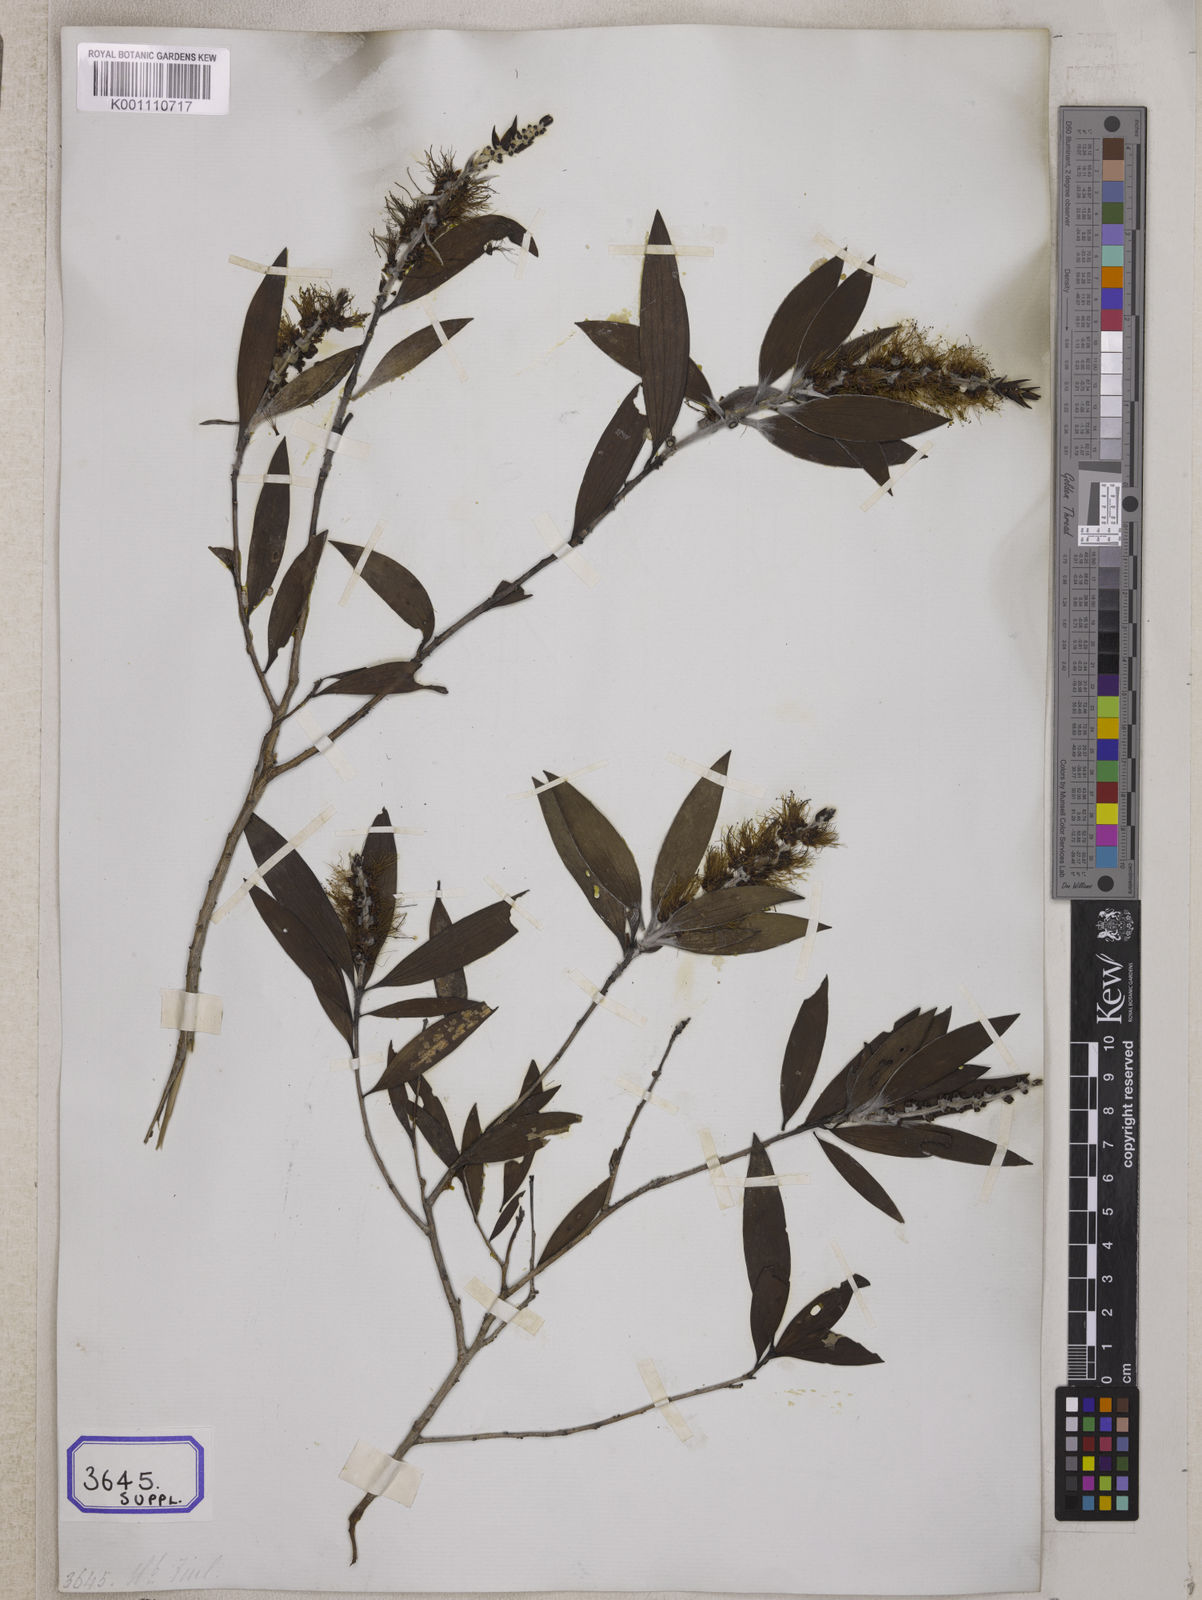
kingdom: Plantae
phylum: Tracheophyta
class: Magnoliopsida
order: Myrtales
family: Myrtaceae
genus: Melaleuca
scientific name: Melaleuca cajuputi
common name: Cajuput
